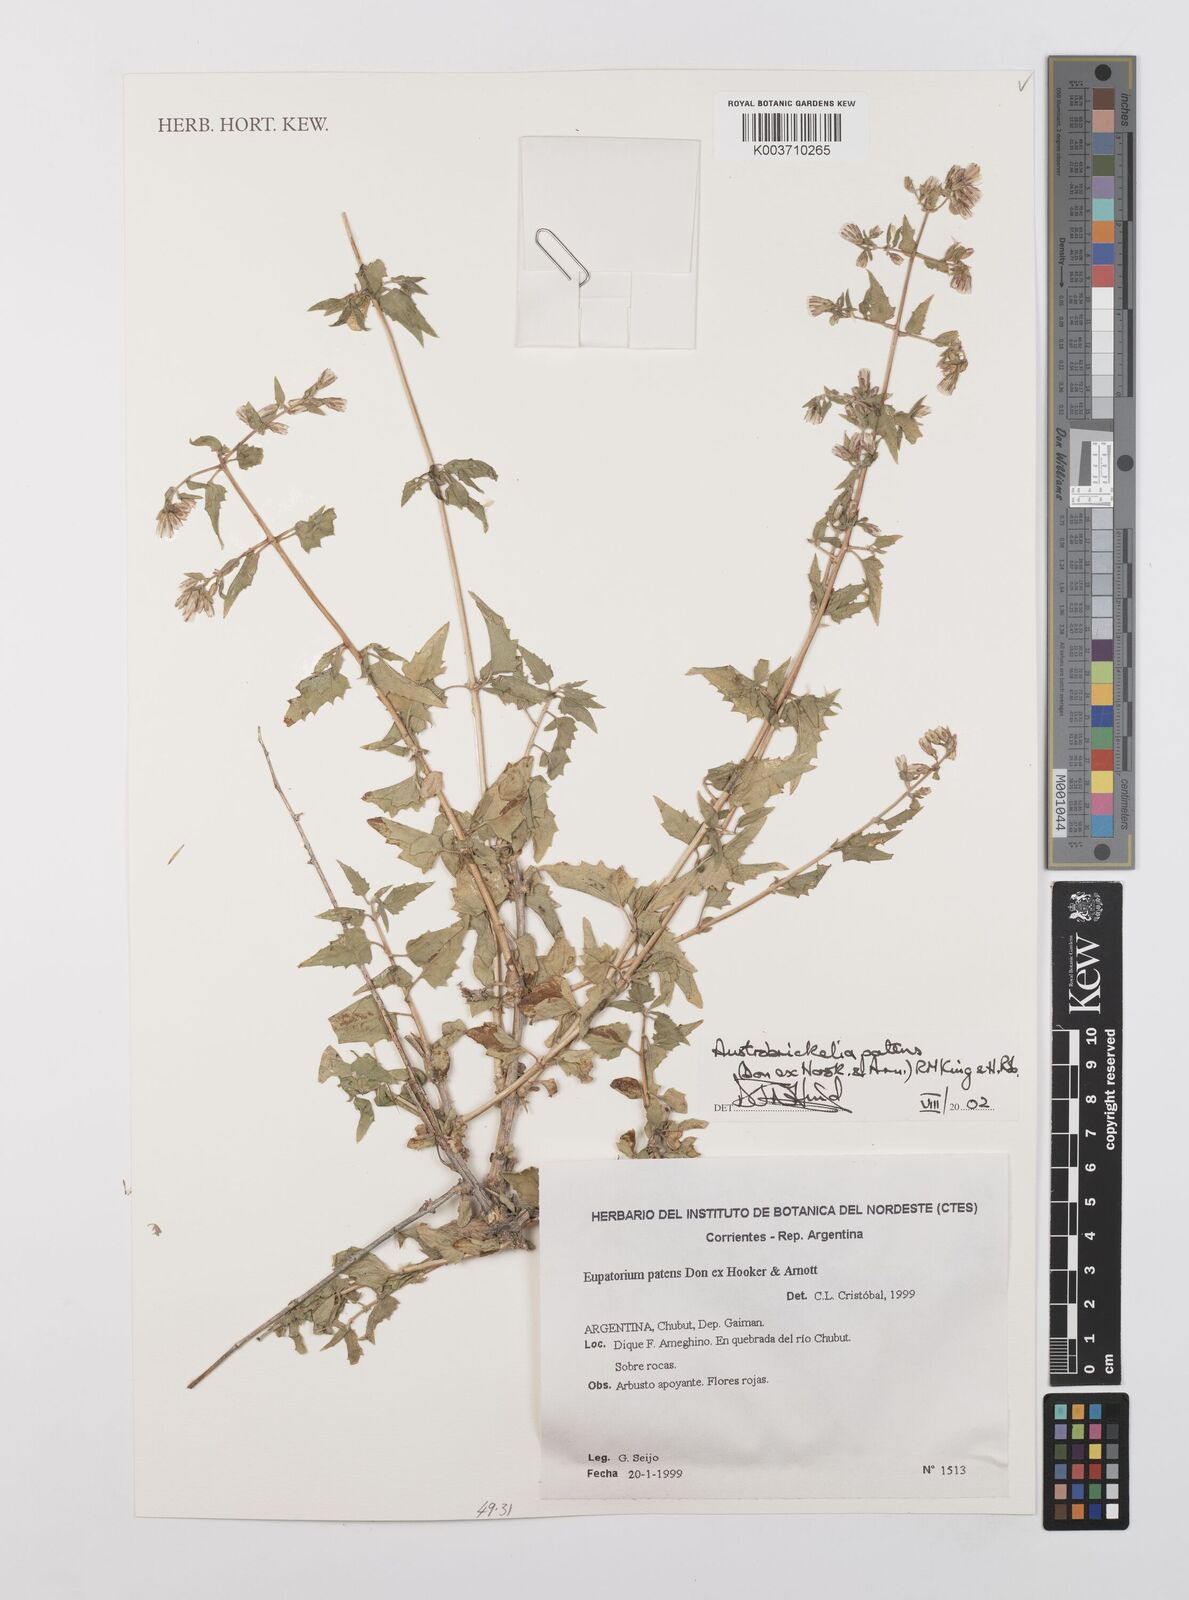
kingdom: Plantae
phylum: Tracheophyta
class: Magnoliopsida
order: Asterales
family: Asteraceae
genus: Austrobrickellia
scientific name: Austrobrickellia patens
